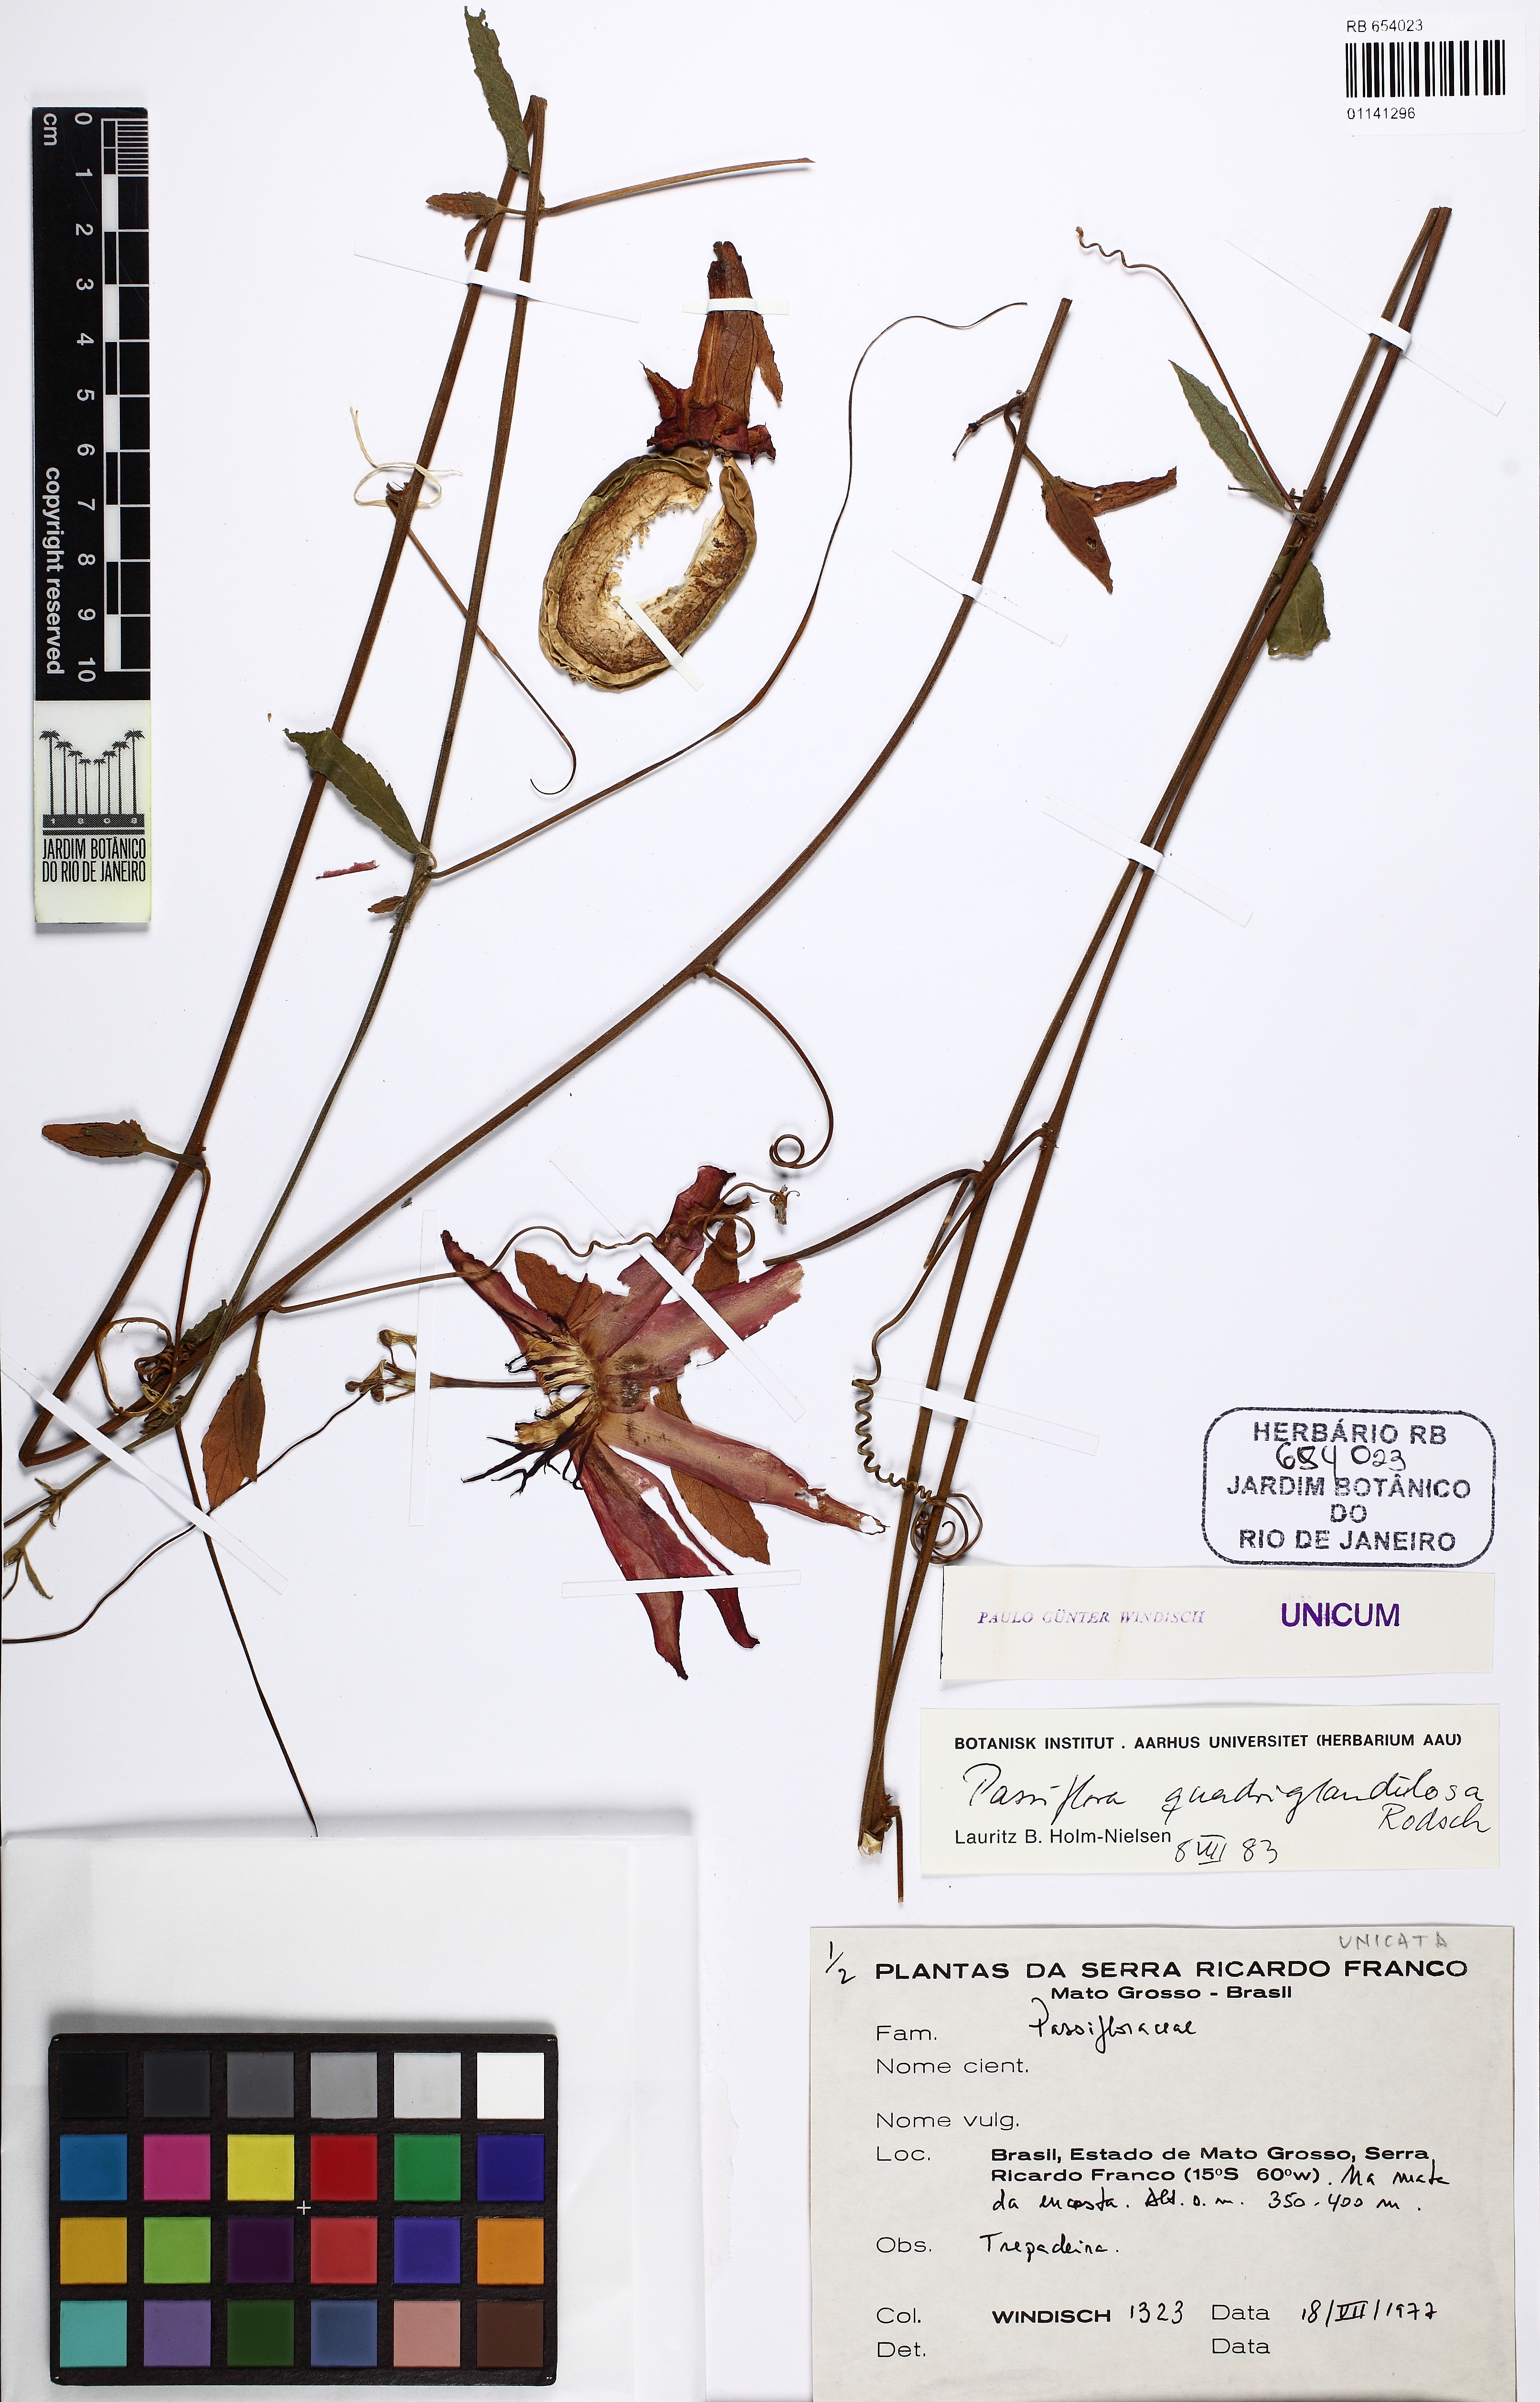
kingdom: Plantae
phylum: Tracheophyta
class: Magnoliopsida
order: Malpighiales
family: Passifloraceae
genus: Passiflora
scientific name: Passiflora quadriglandulosa
